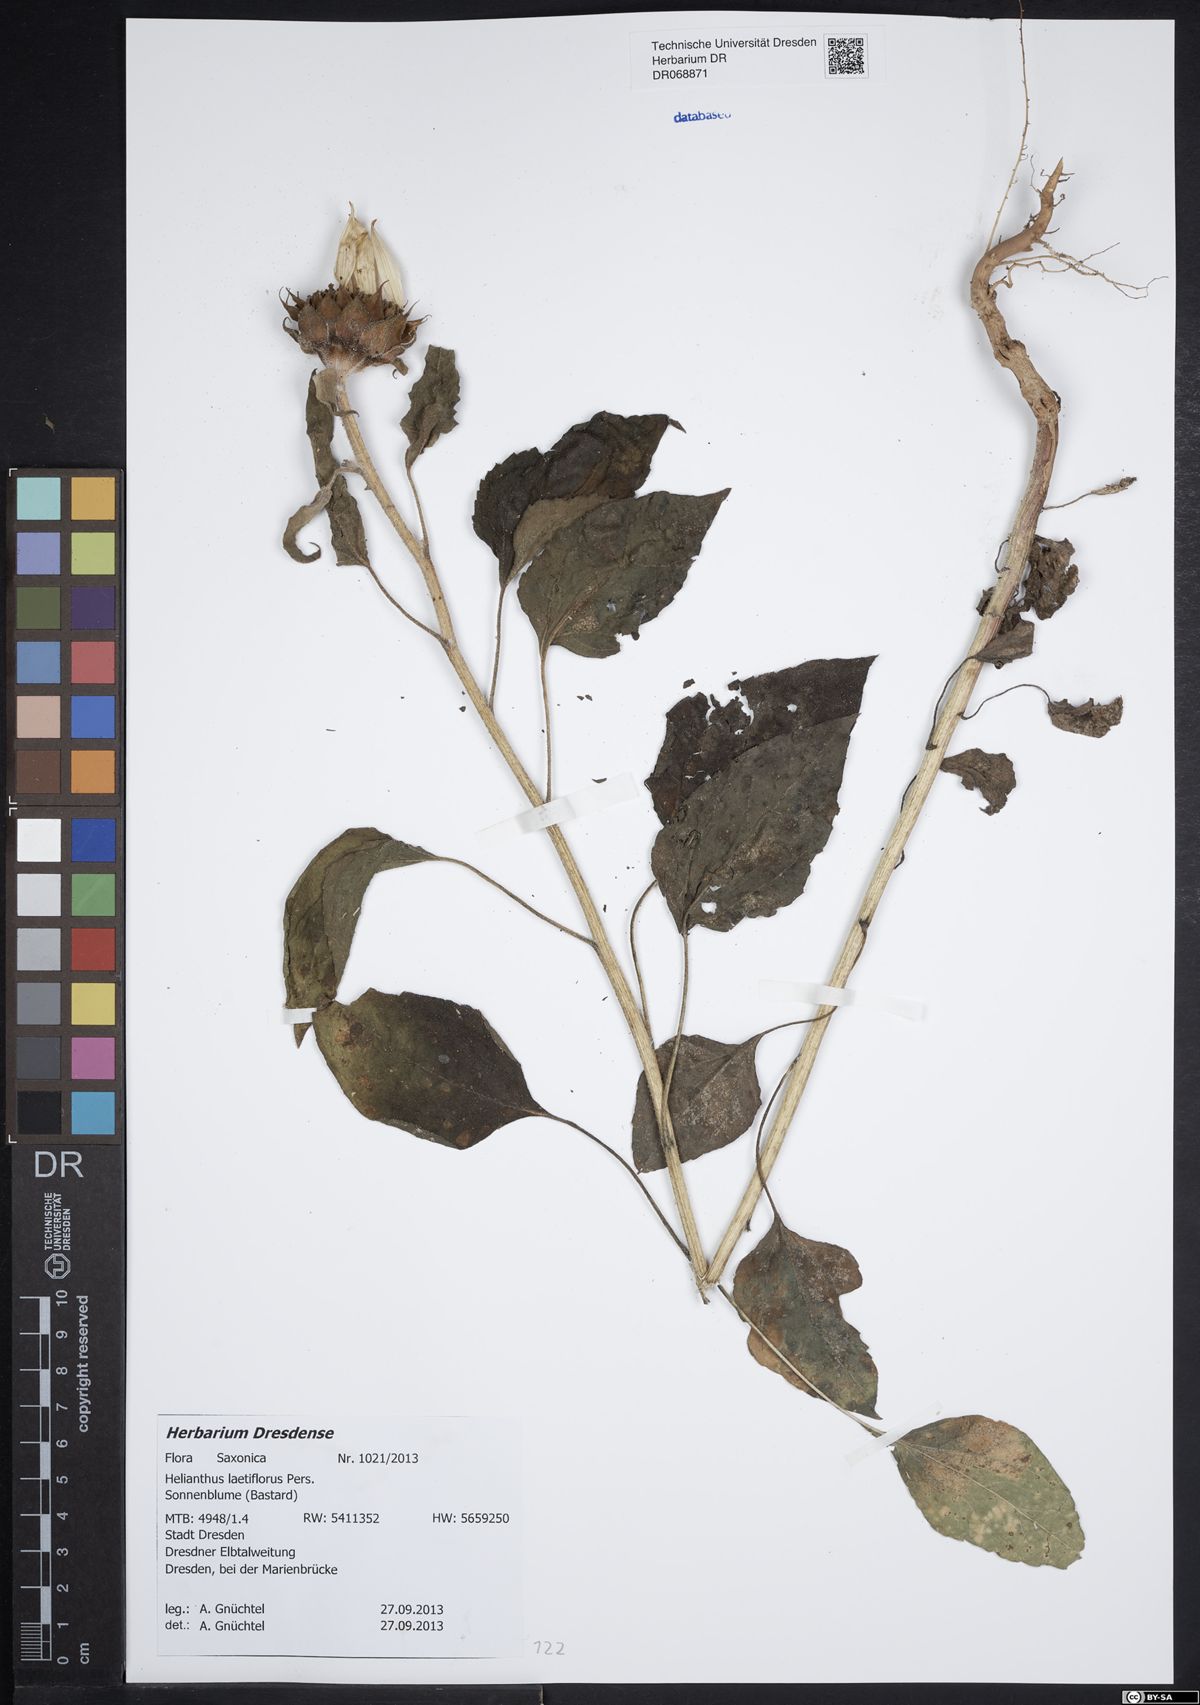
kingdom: Plantae
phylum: Tracheophyta
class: Magnoliopsida
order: Asterales
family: Asteraceae
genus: Helianthus
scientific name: Helianthus laetiflorus
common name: Perennial sunflower
